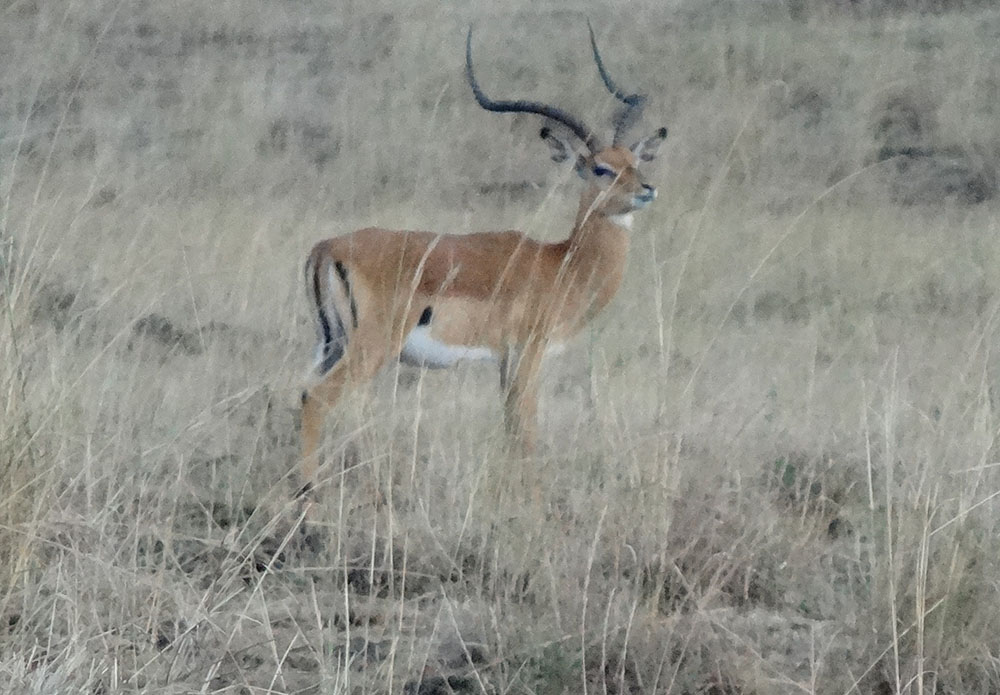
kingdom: Animalia
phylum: Chordata
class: Mammalia
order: Artiodactyla
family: Bovidae
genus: Aepyceros
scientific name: Aepyceros melampus
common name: Impala
